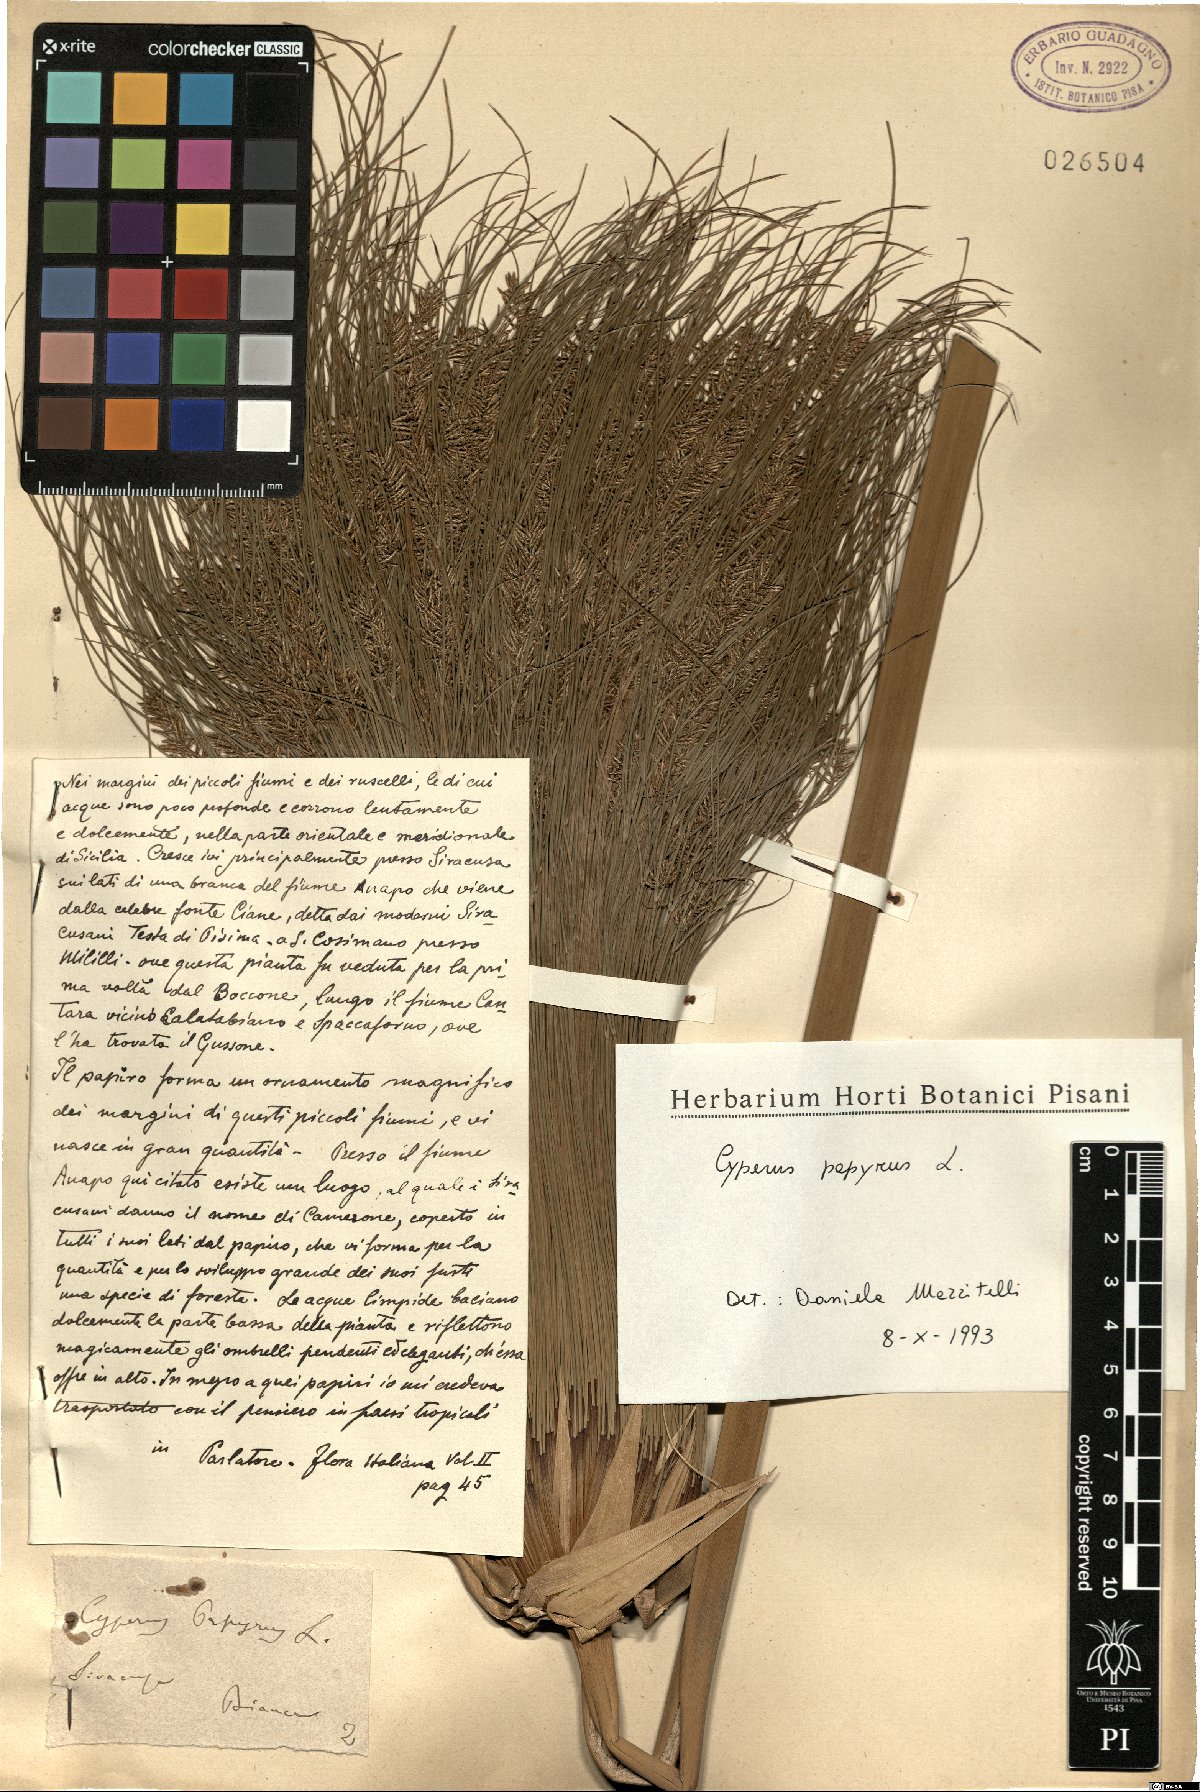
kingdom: Plantae
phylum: Tracheophyta
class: Liliopsida
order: Poales
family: Cyperaceae
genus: Cyperus
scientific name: Cyperus papyrus
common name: Papyrus
